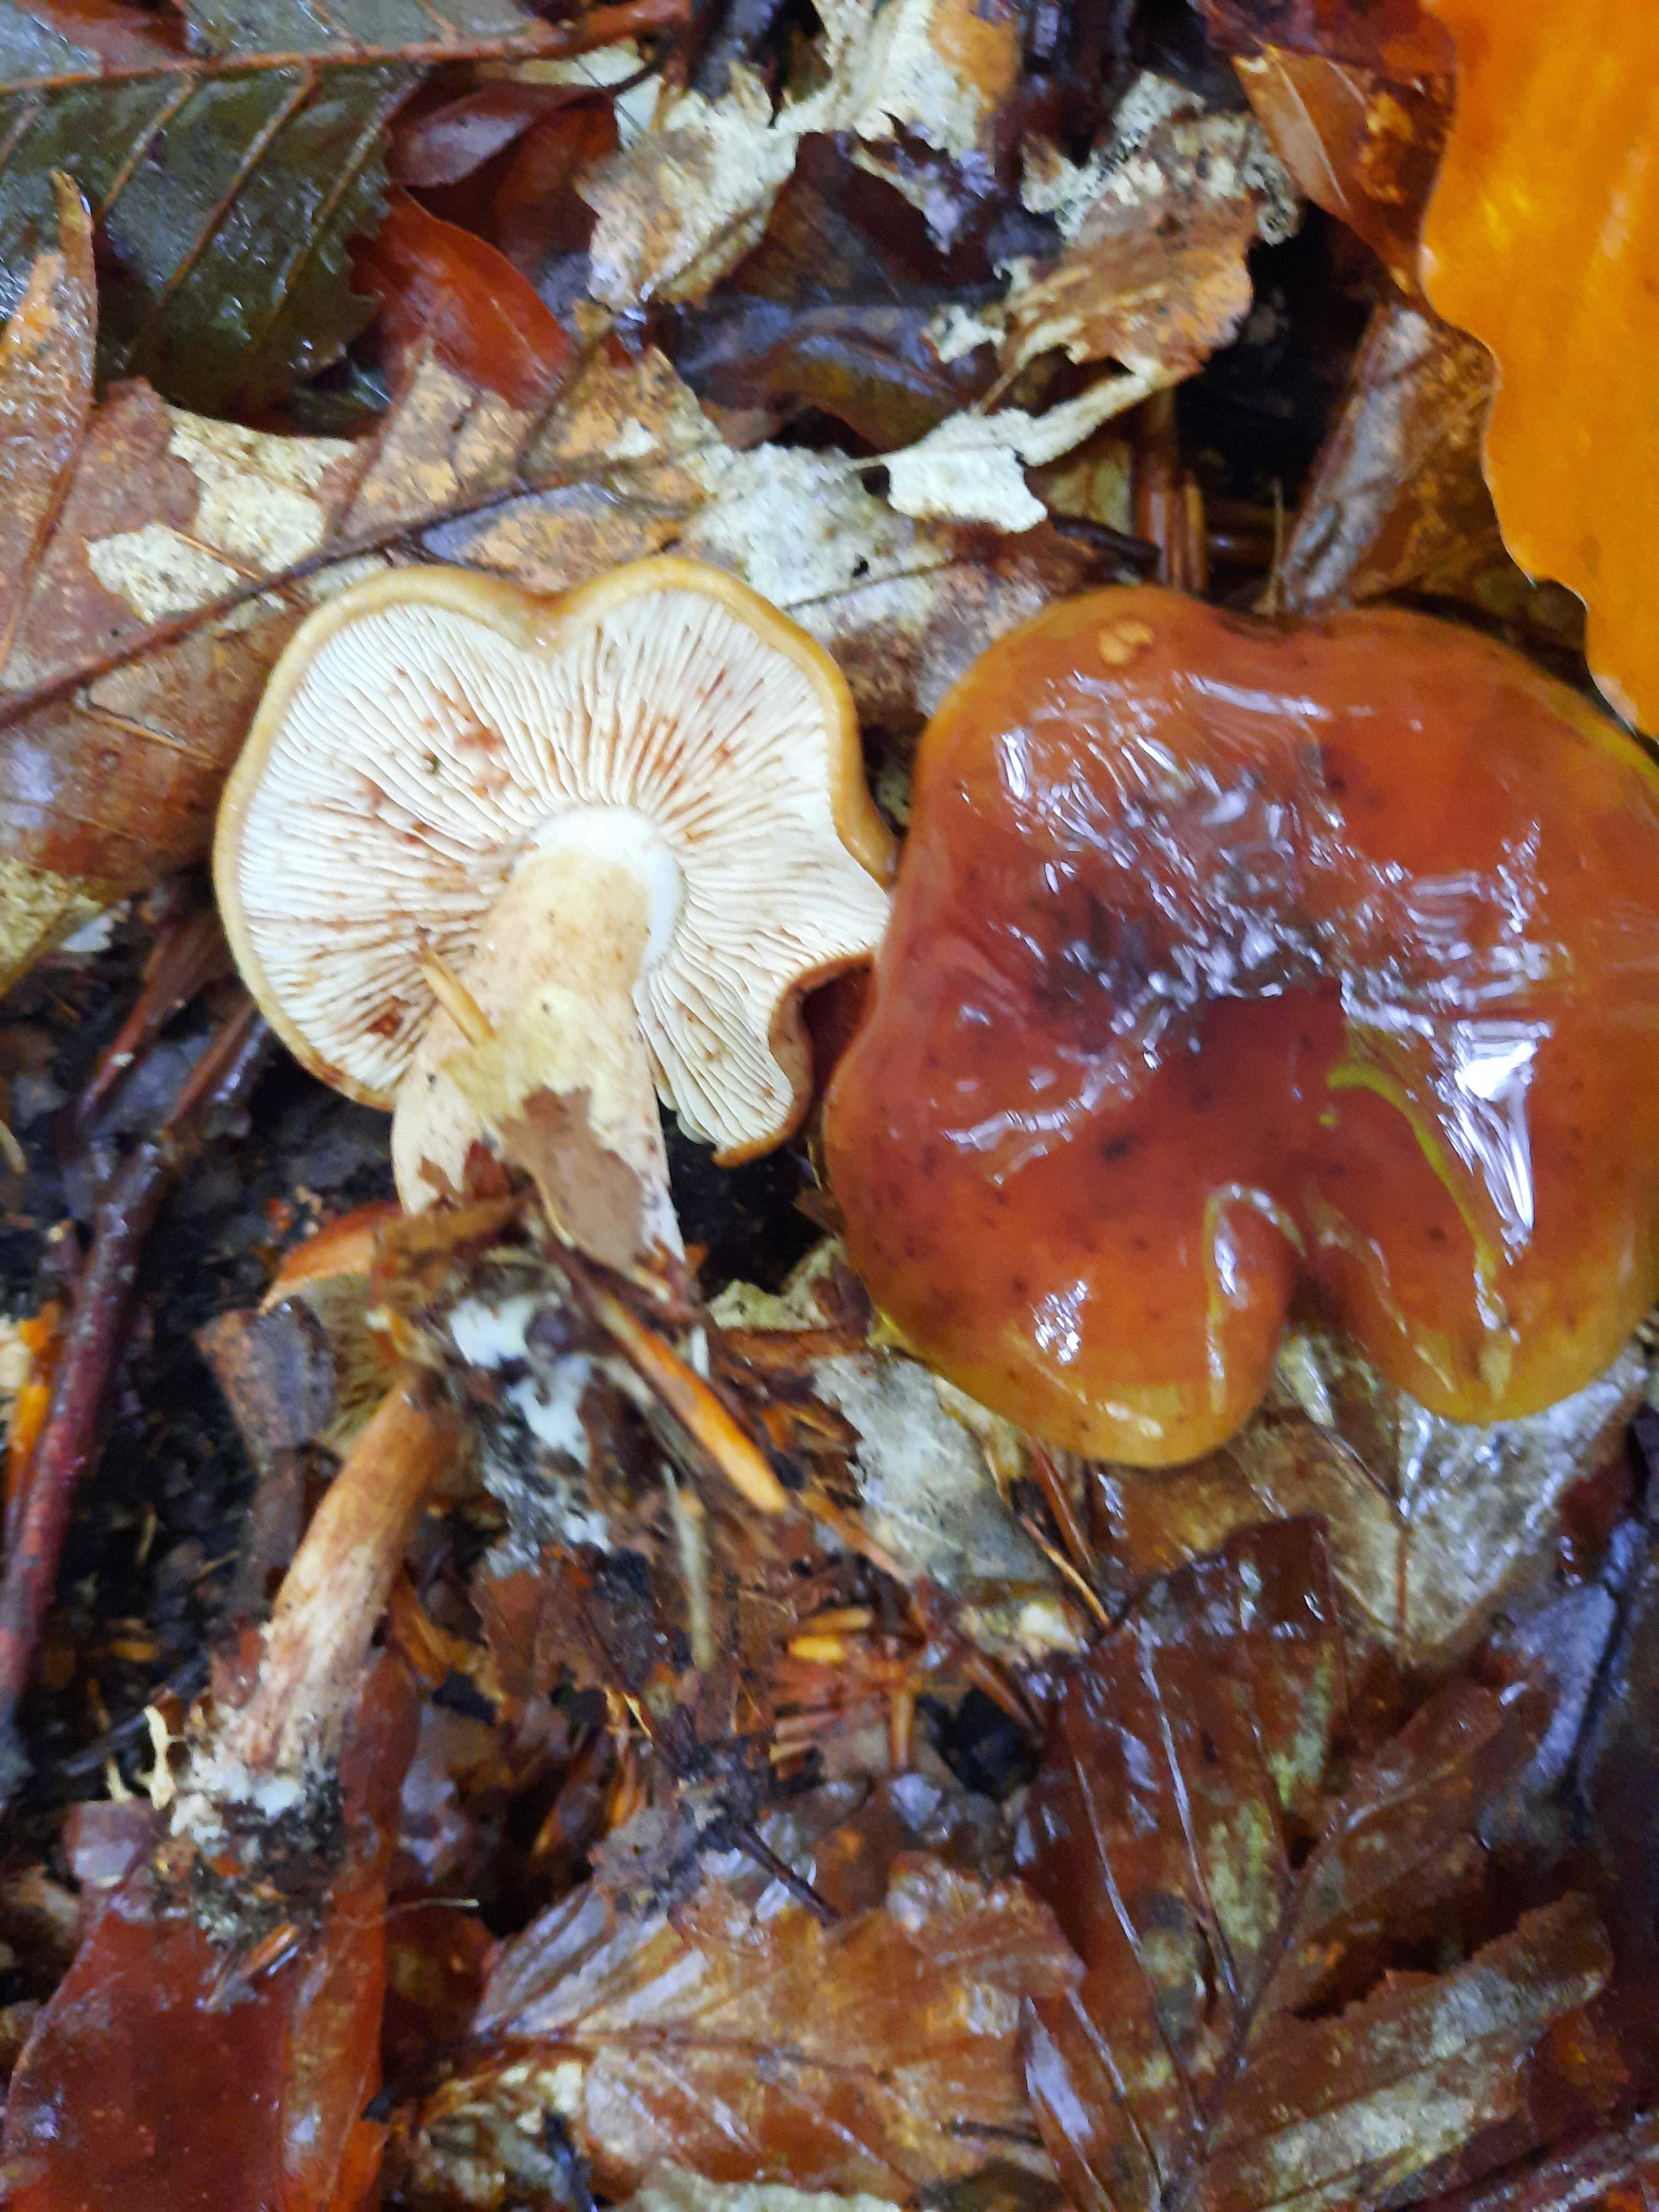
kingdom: Fungi
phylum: Basidiomycota
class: Agaricomycetes
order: Agaricales
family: Tricholomataceae
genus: Tricholoma
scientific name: Tricholoma ustale
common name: sveden ridderhat
